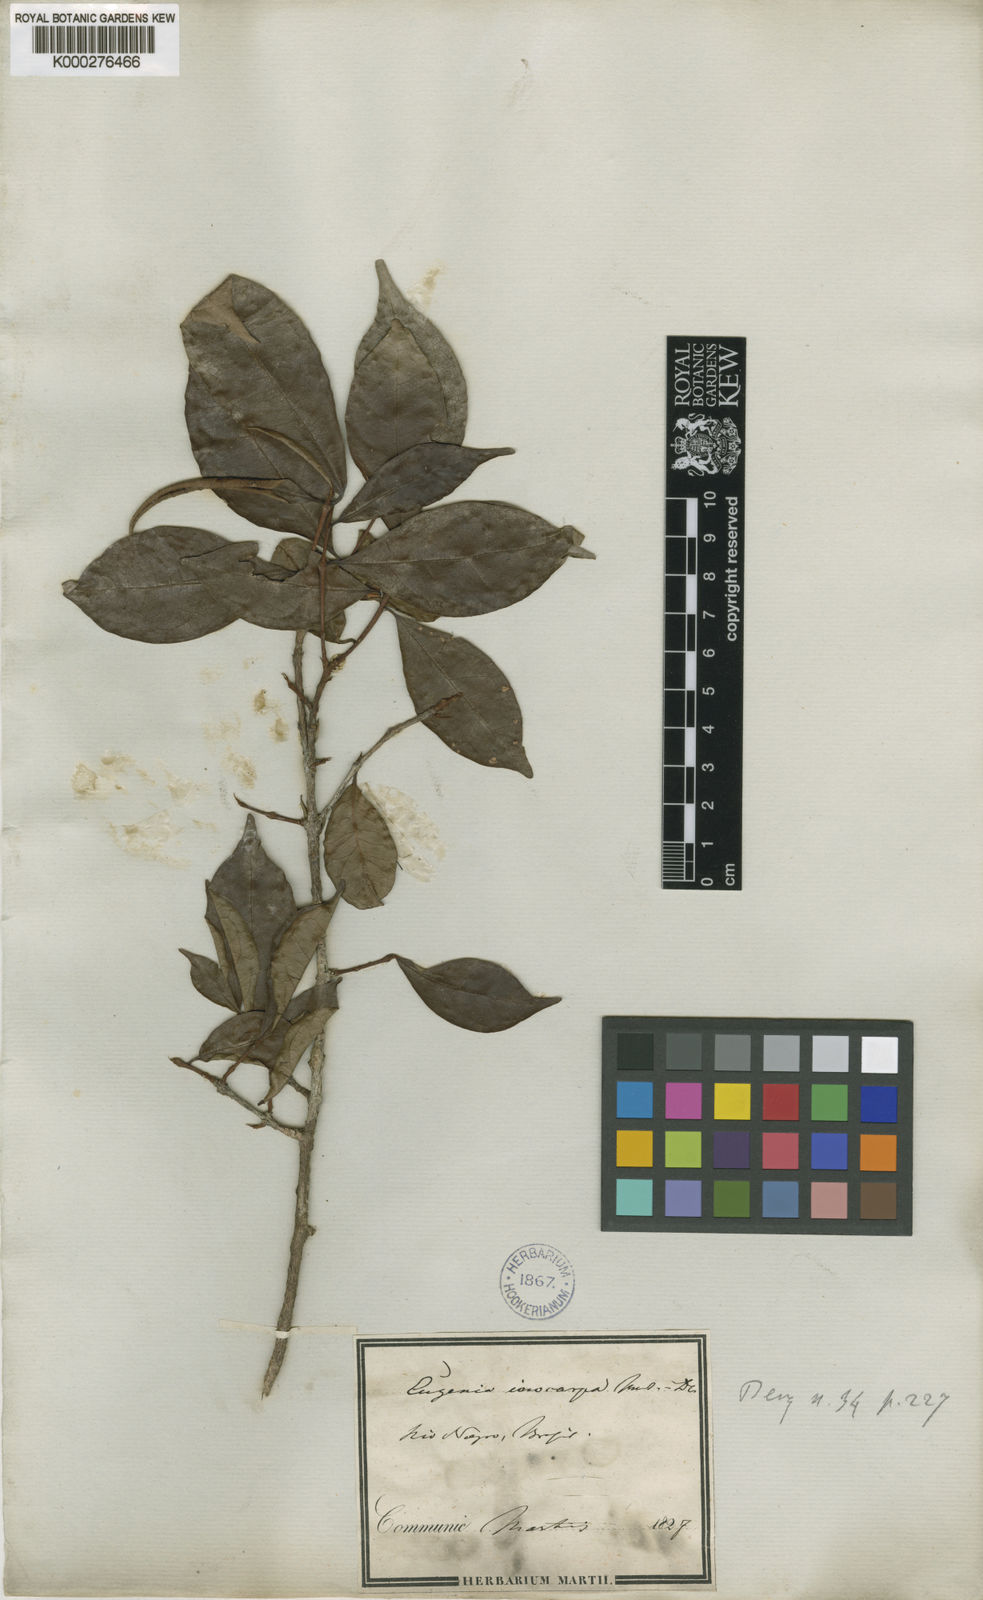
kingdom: Plantae
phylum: Tracheophyta
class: Magnoliopsida
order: Myrtales
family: Myrtaceae
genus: Eugenia
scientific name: Eugenia procera
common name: Bastard blackberry
